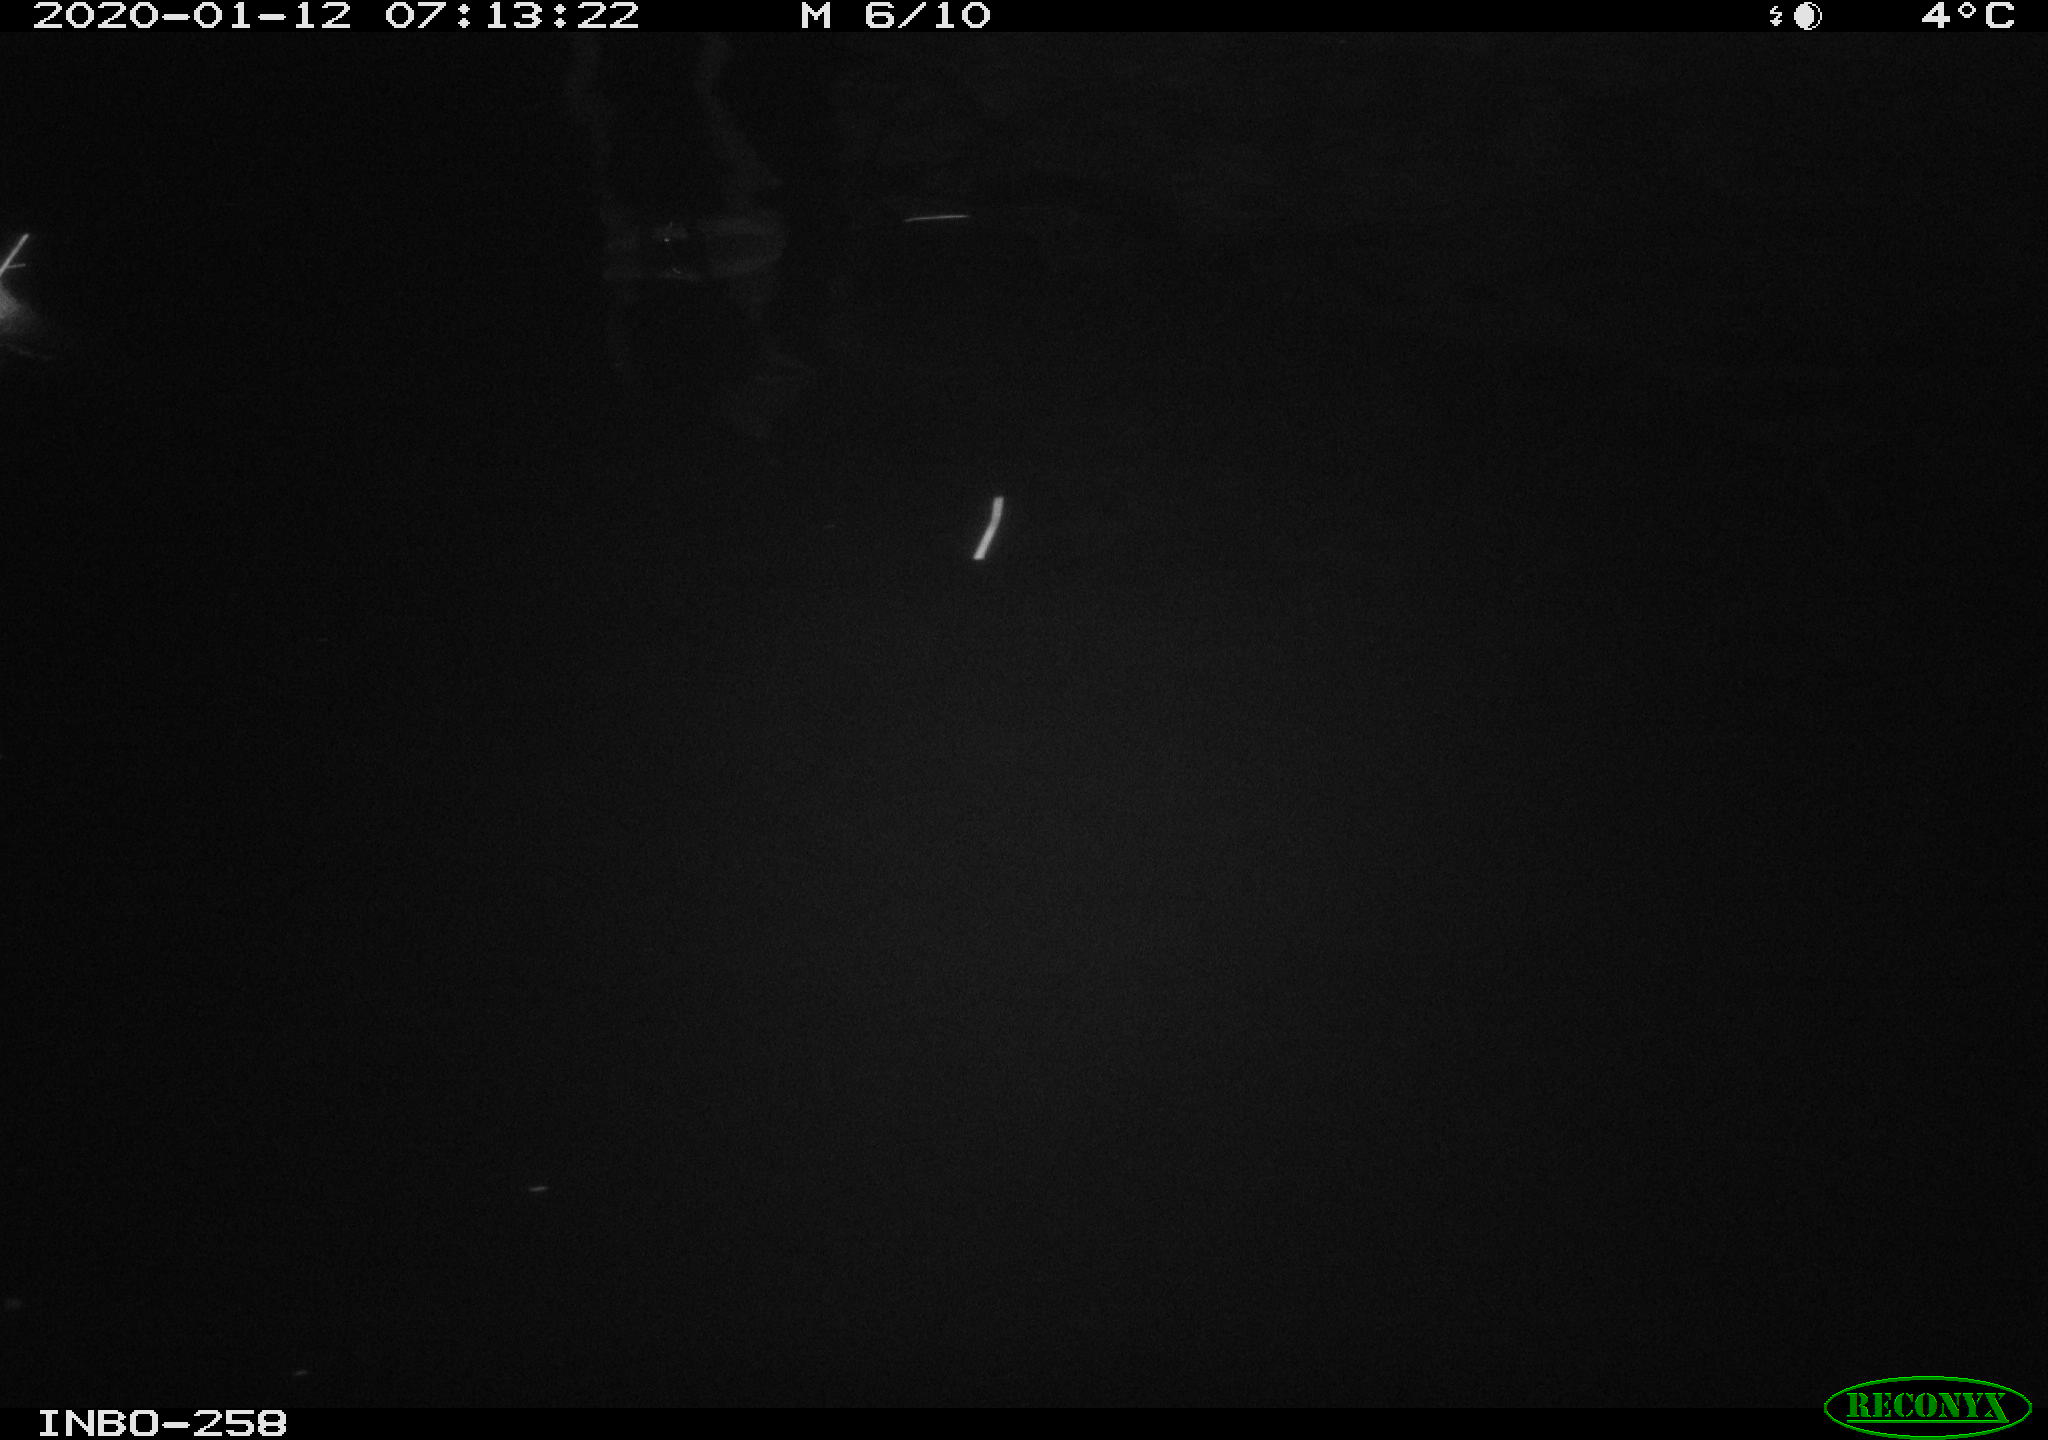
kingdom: Animalia
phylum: Chordata
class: Aves
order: Anseriformes
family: Anatidae
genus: Anas
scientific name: Anas platyrhynchos
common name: Mallard
